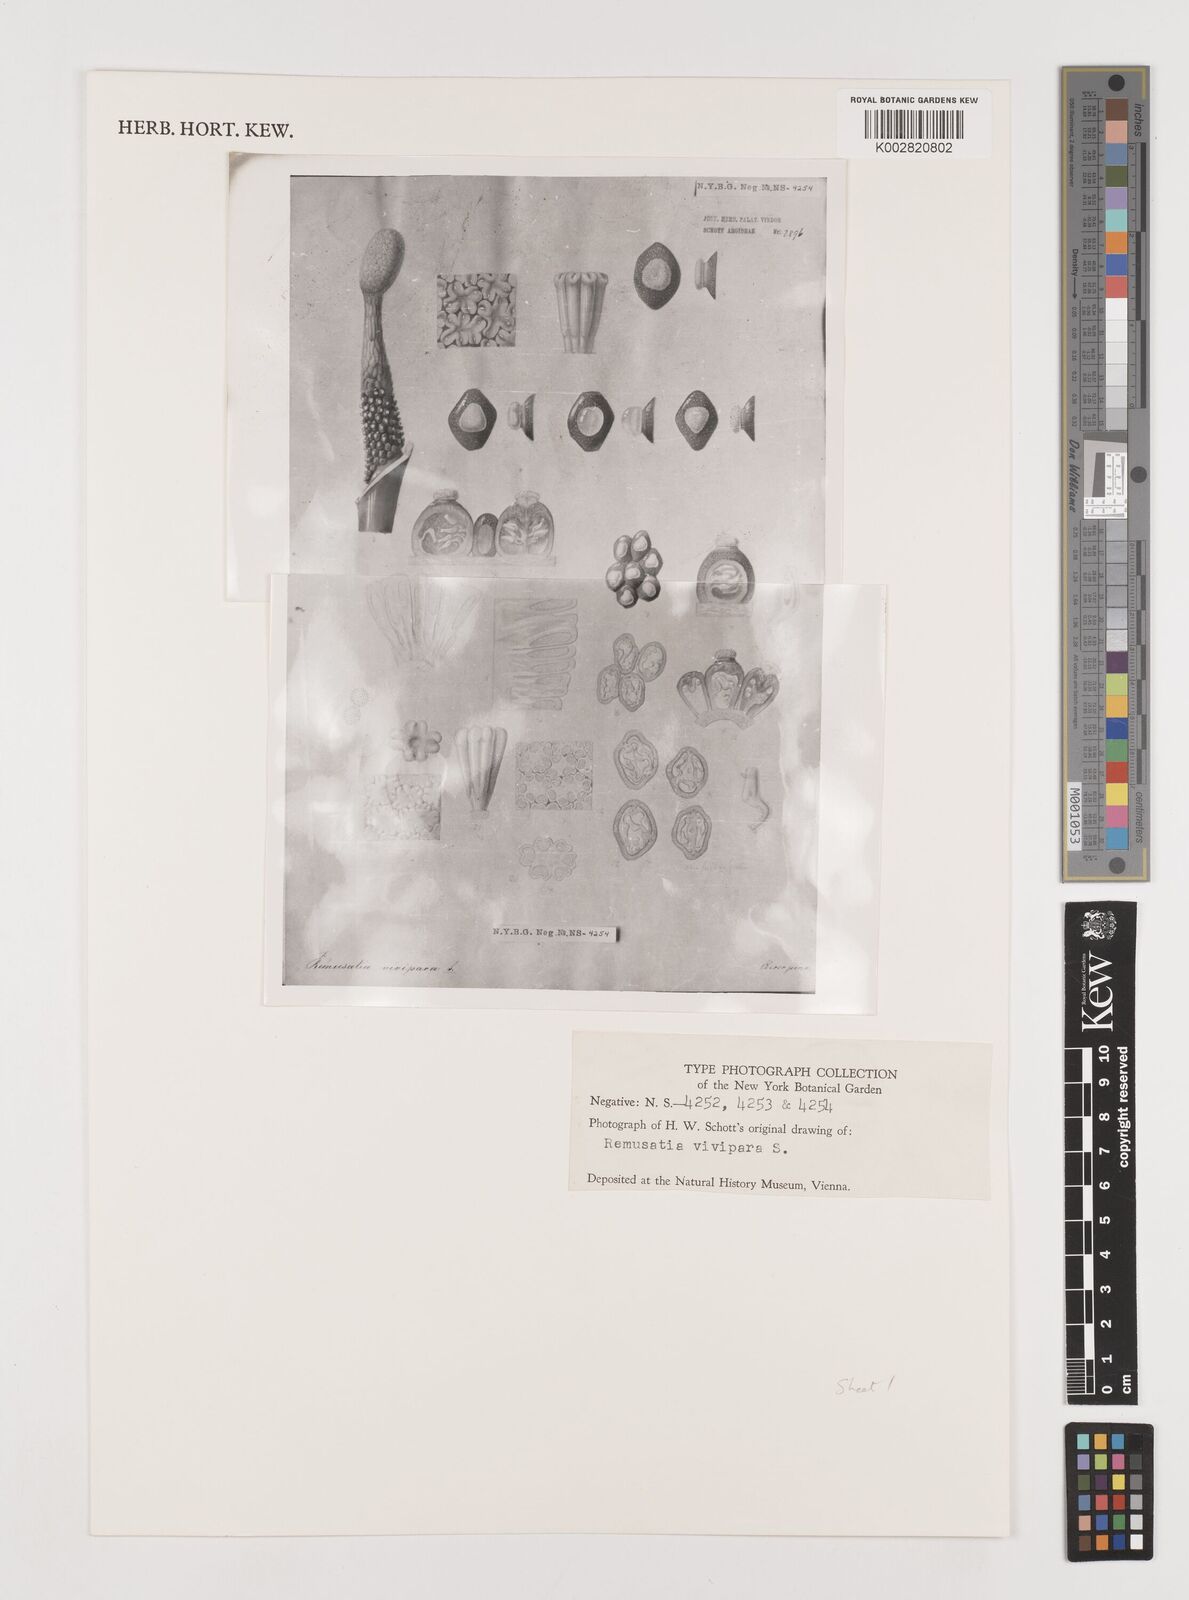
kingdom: Plantae
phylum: Tracheophyta
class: Liliopsida
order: Alismatales
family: Araceae
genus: Remusatia
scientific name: Remusatia vivipara
